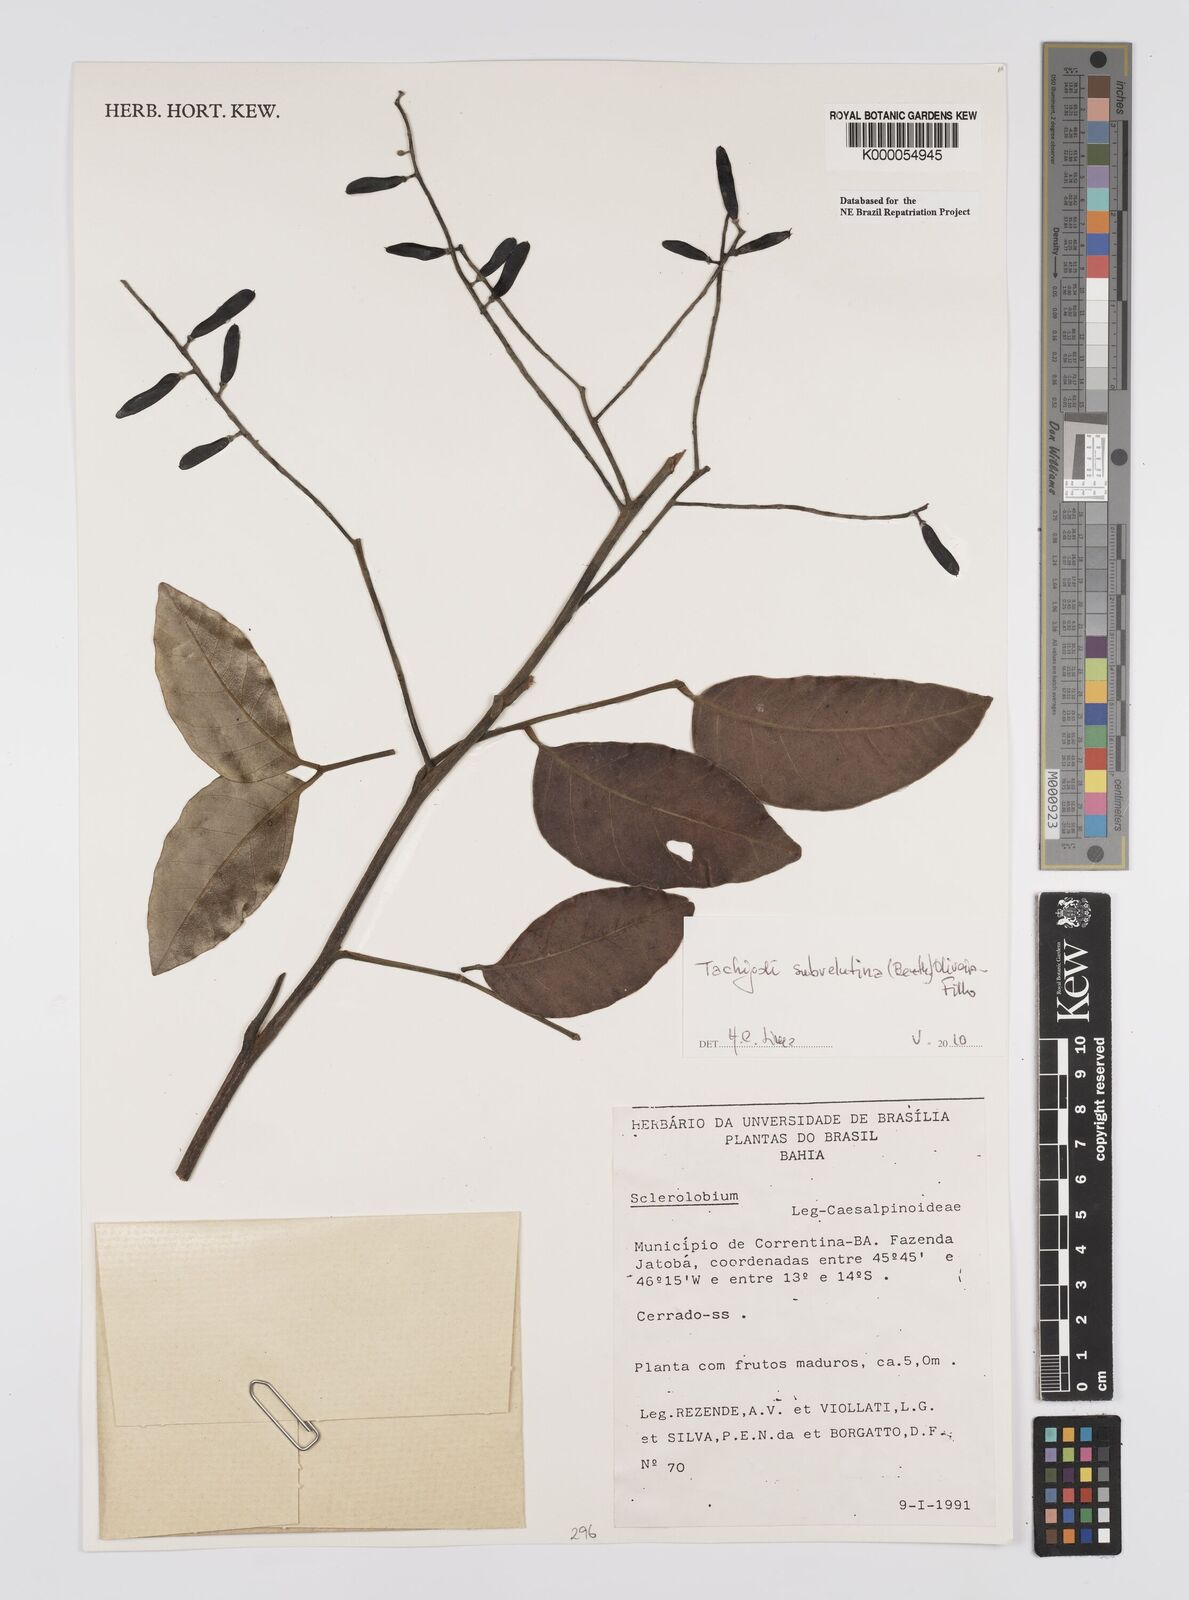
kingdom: Plantae
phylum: Tracheophyta
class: Magnoliopsida
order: Fabales
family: Fabaceae
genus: Tachigali
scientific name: Tachigali
